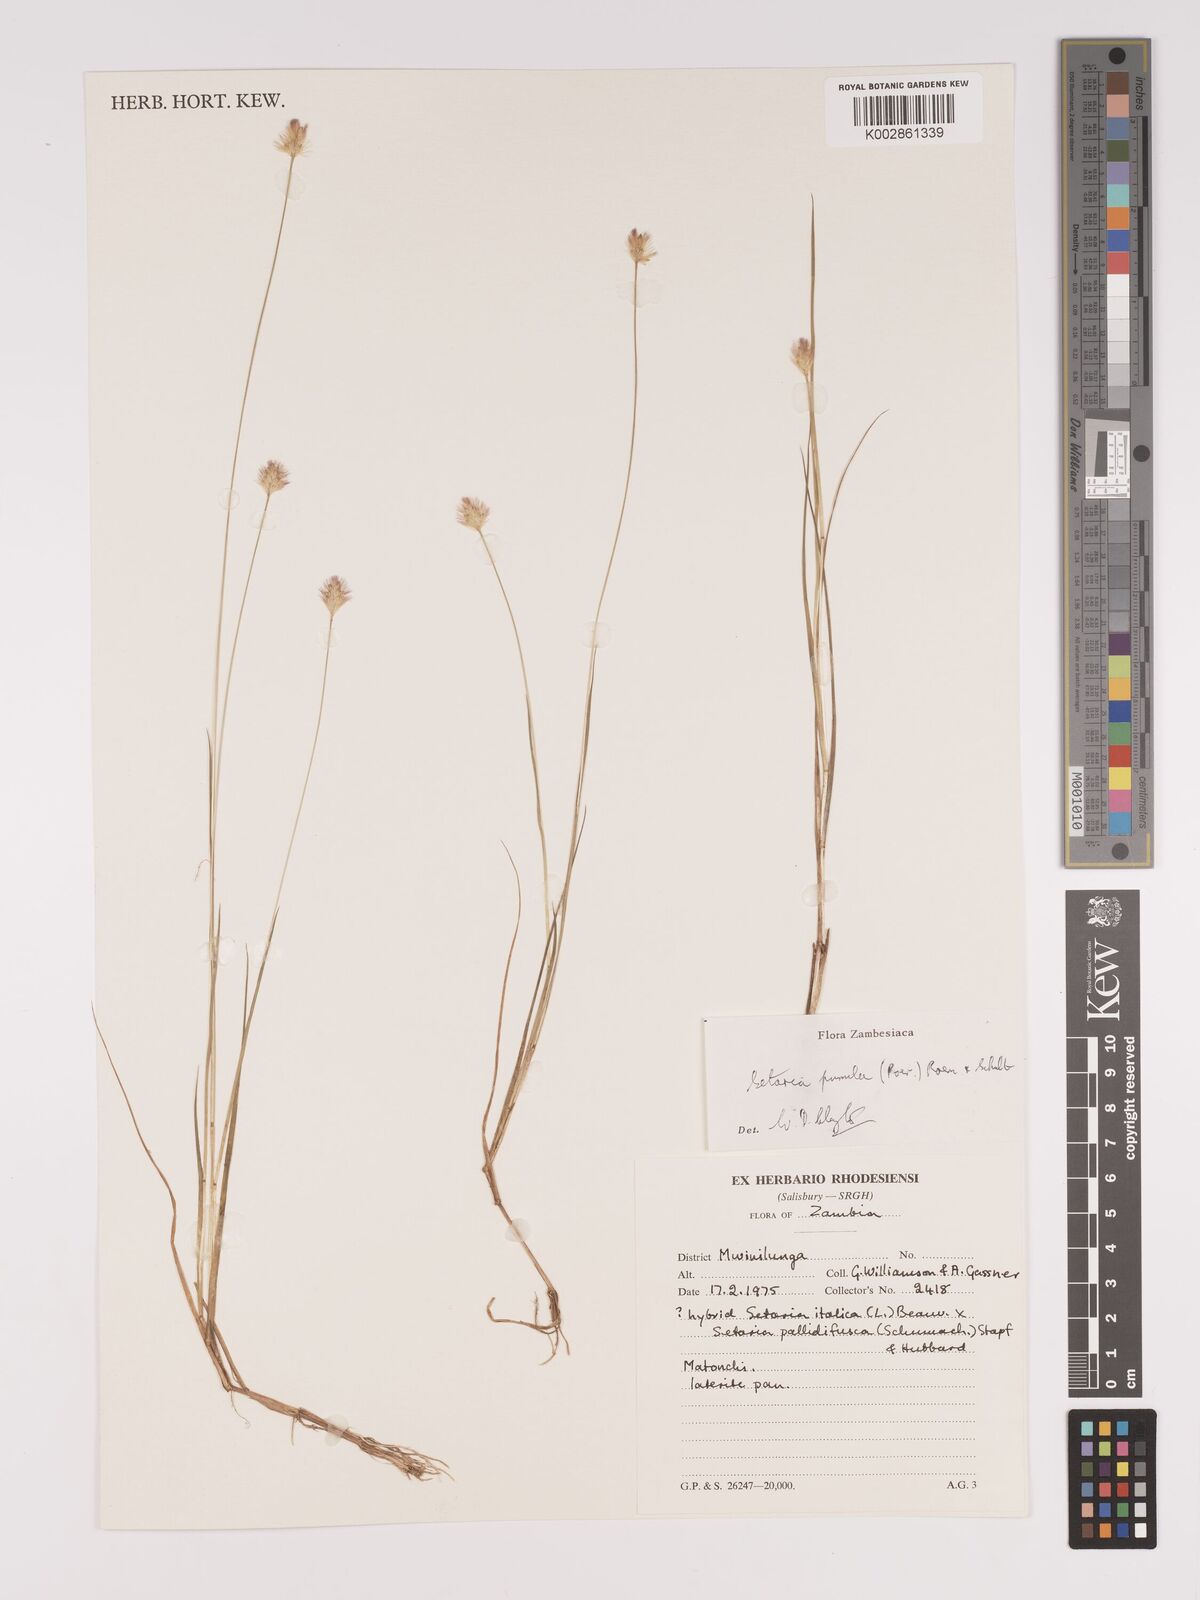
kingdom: Plantae
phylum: Tracheophyta
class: Liliopsida
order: Poales
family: Poaceae
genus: Setaria
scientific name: Setaria pumila
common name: Yellow bristle-grass
